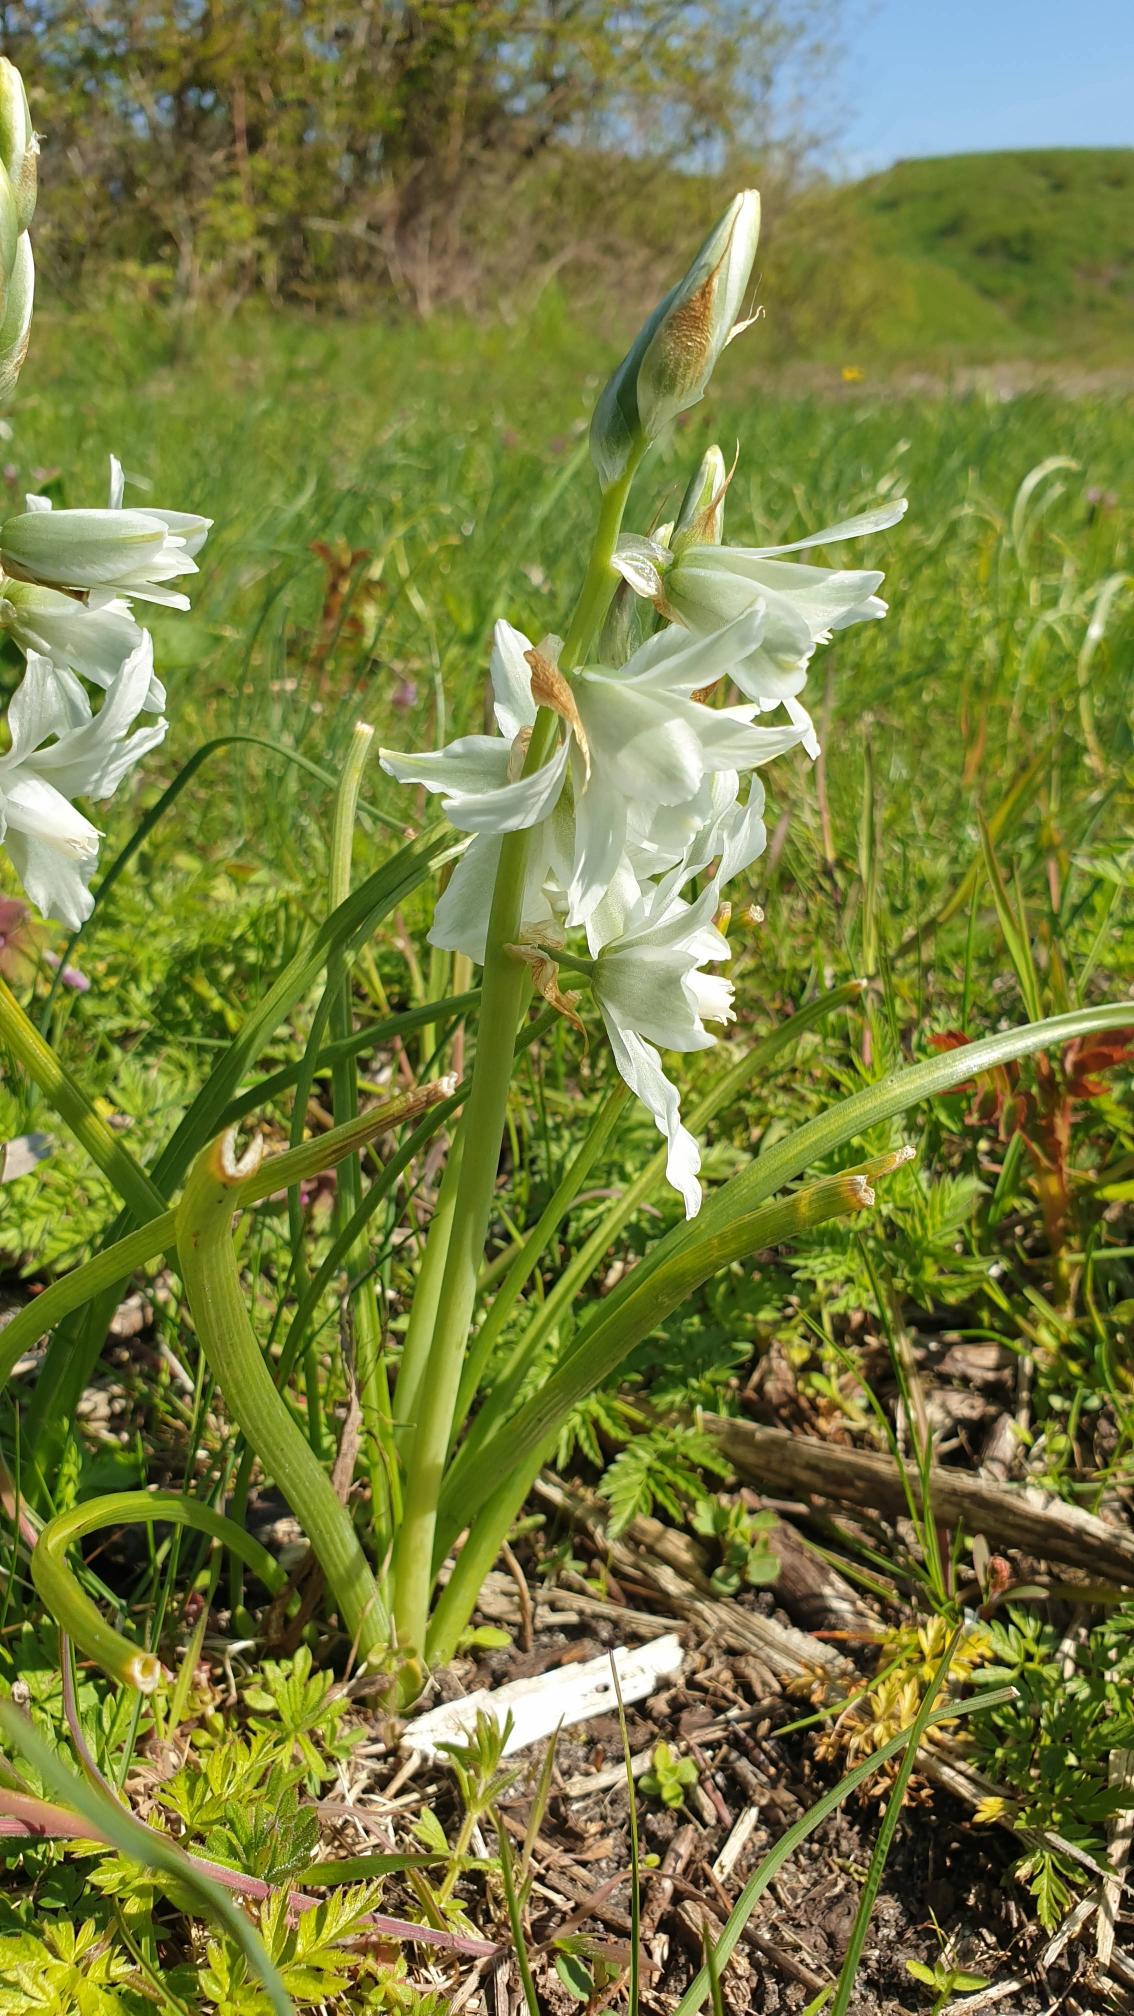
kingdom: Plantae
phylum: Tracheophyta
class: Liliopsida
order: Asparagales
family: Asparagaceae
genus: Ornithogalum
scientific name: Ornithogalum nutans
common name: Nikkende fuglemælk
